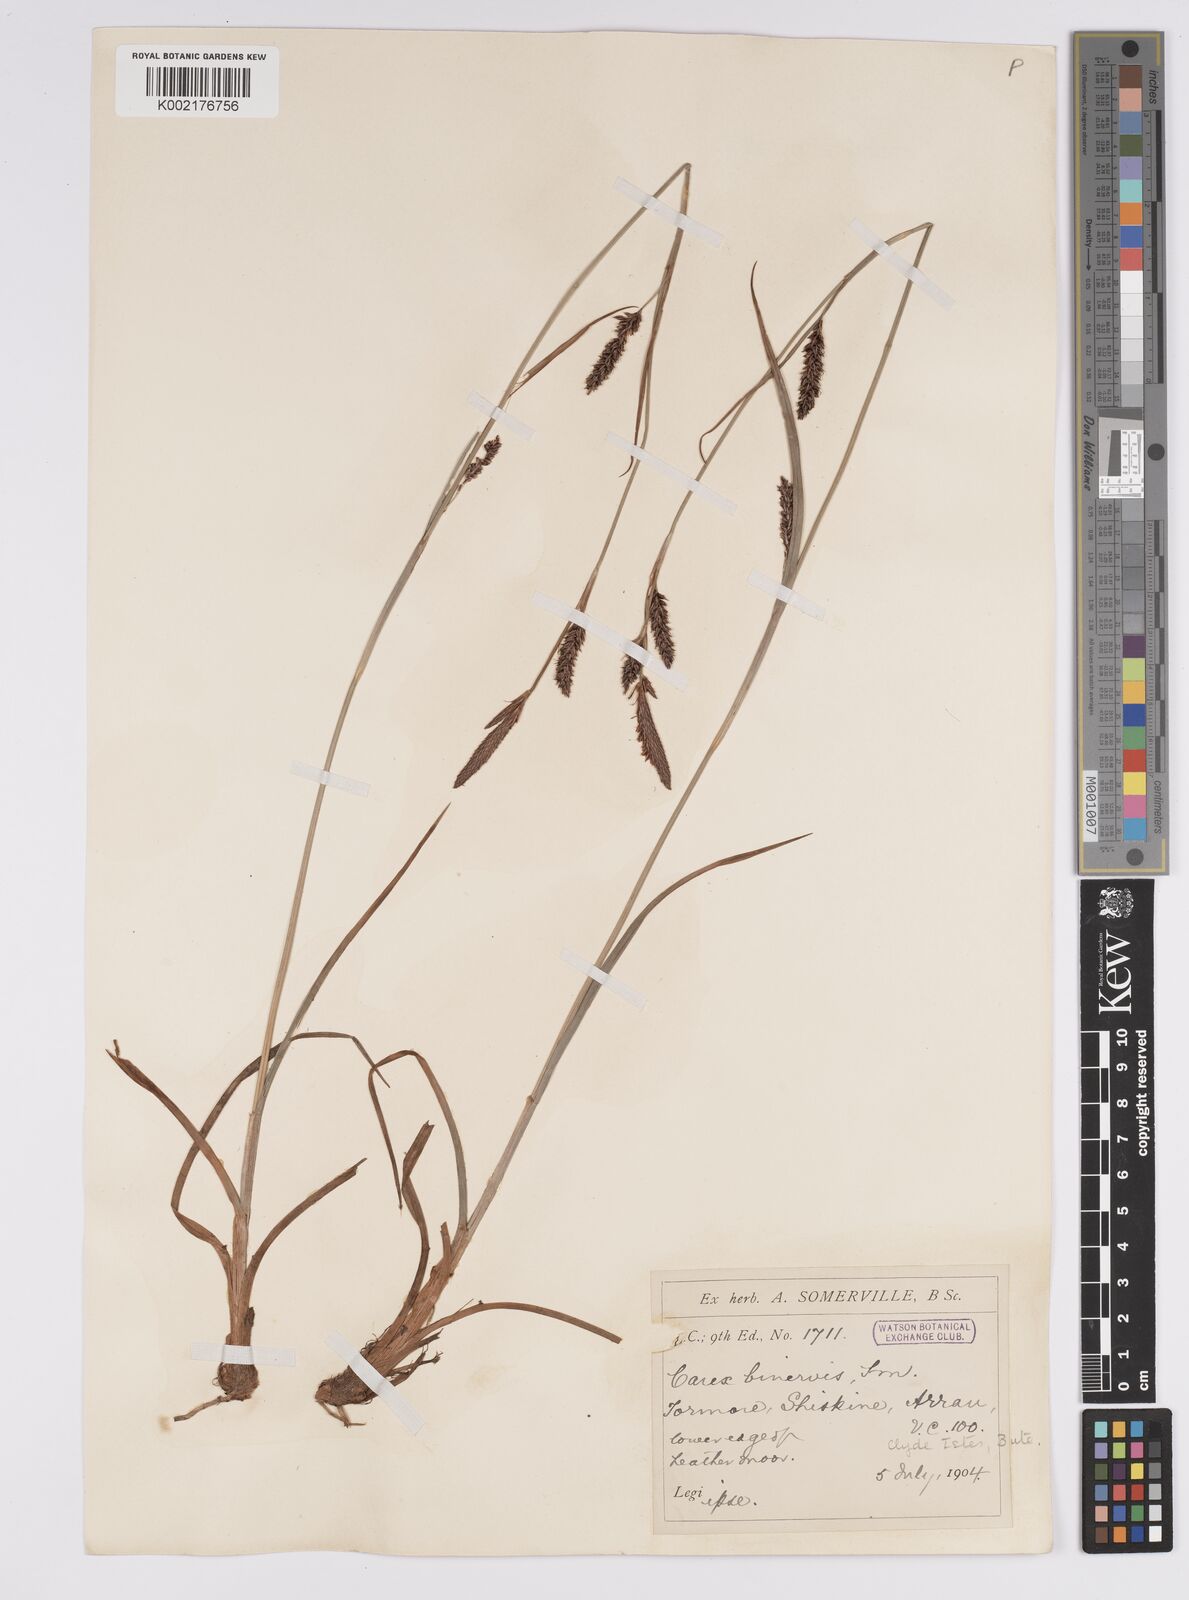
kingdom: Plantae
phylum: Tracheophyta
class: Liliopsida
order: Poales
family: Cyperaceae
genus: Carex
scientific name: Carex binervis
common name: Green-ribbed sedge
